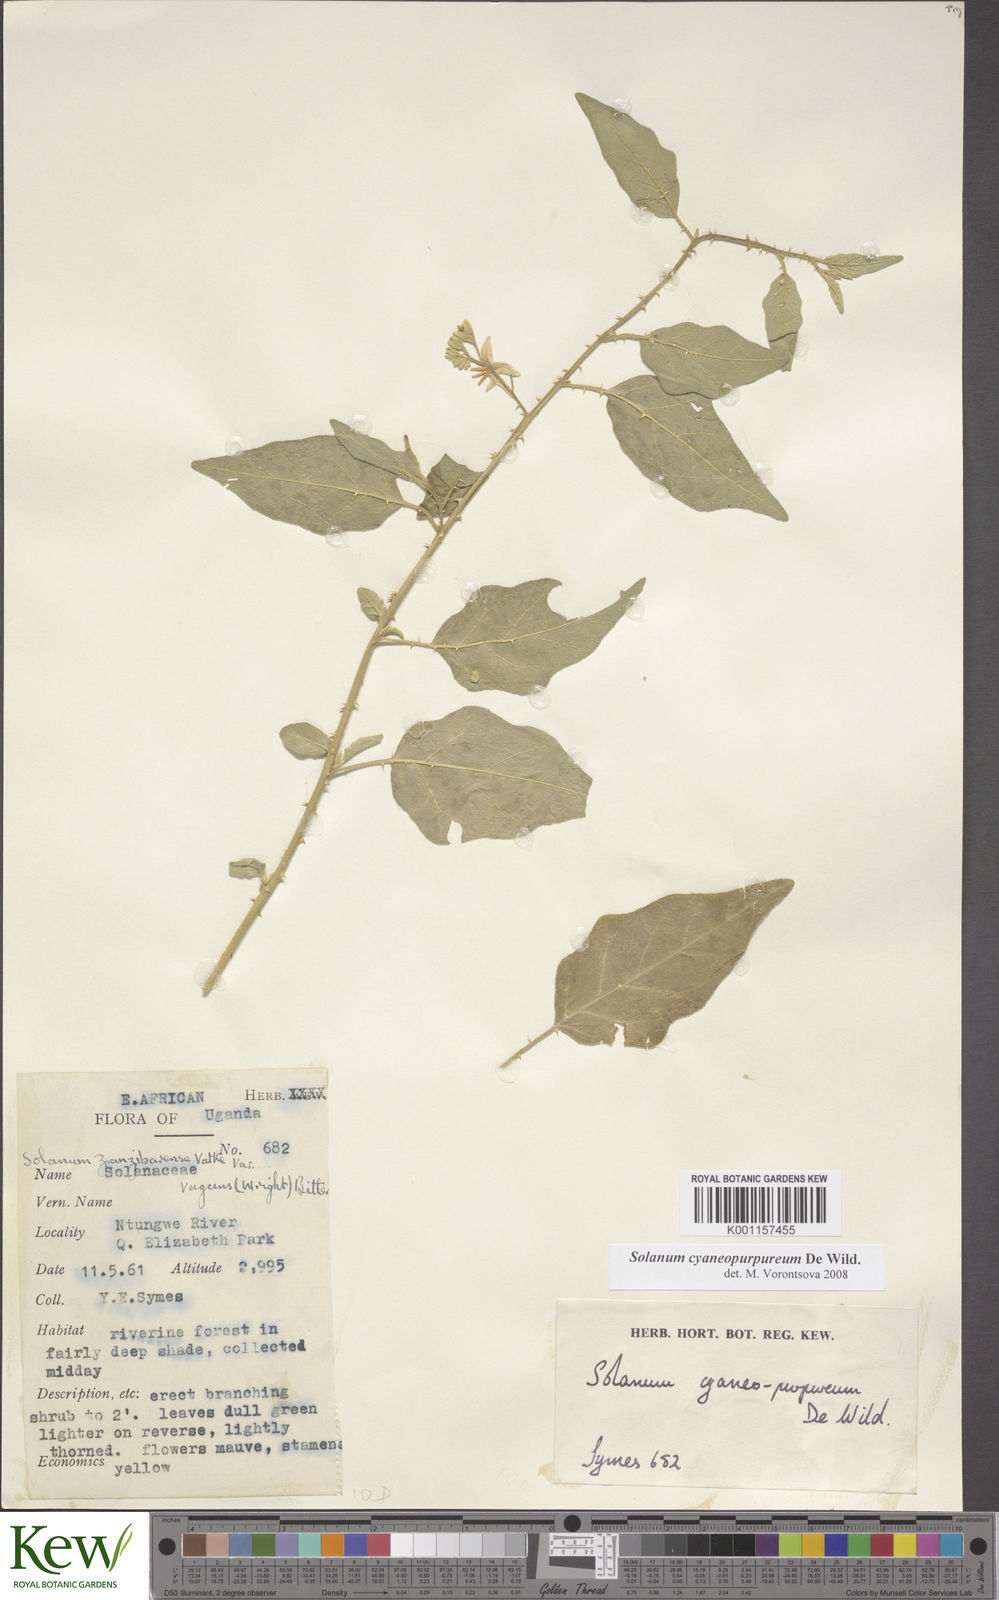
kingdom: Plantae
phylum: Tracheophyta
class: Magnoliopsida
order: Solanales
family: Solanaceae
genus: Solanum
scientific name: Solanum cyaneopurpureum
